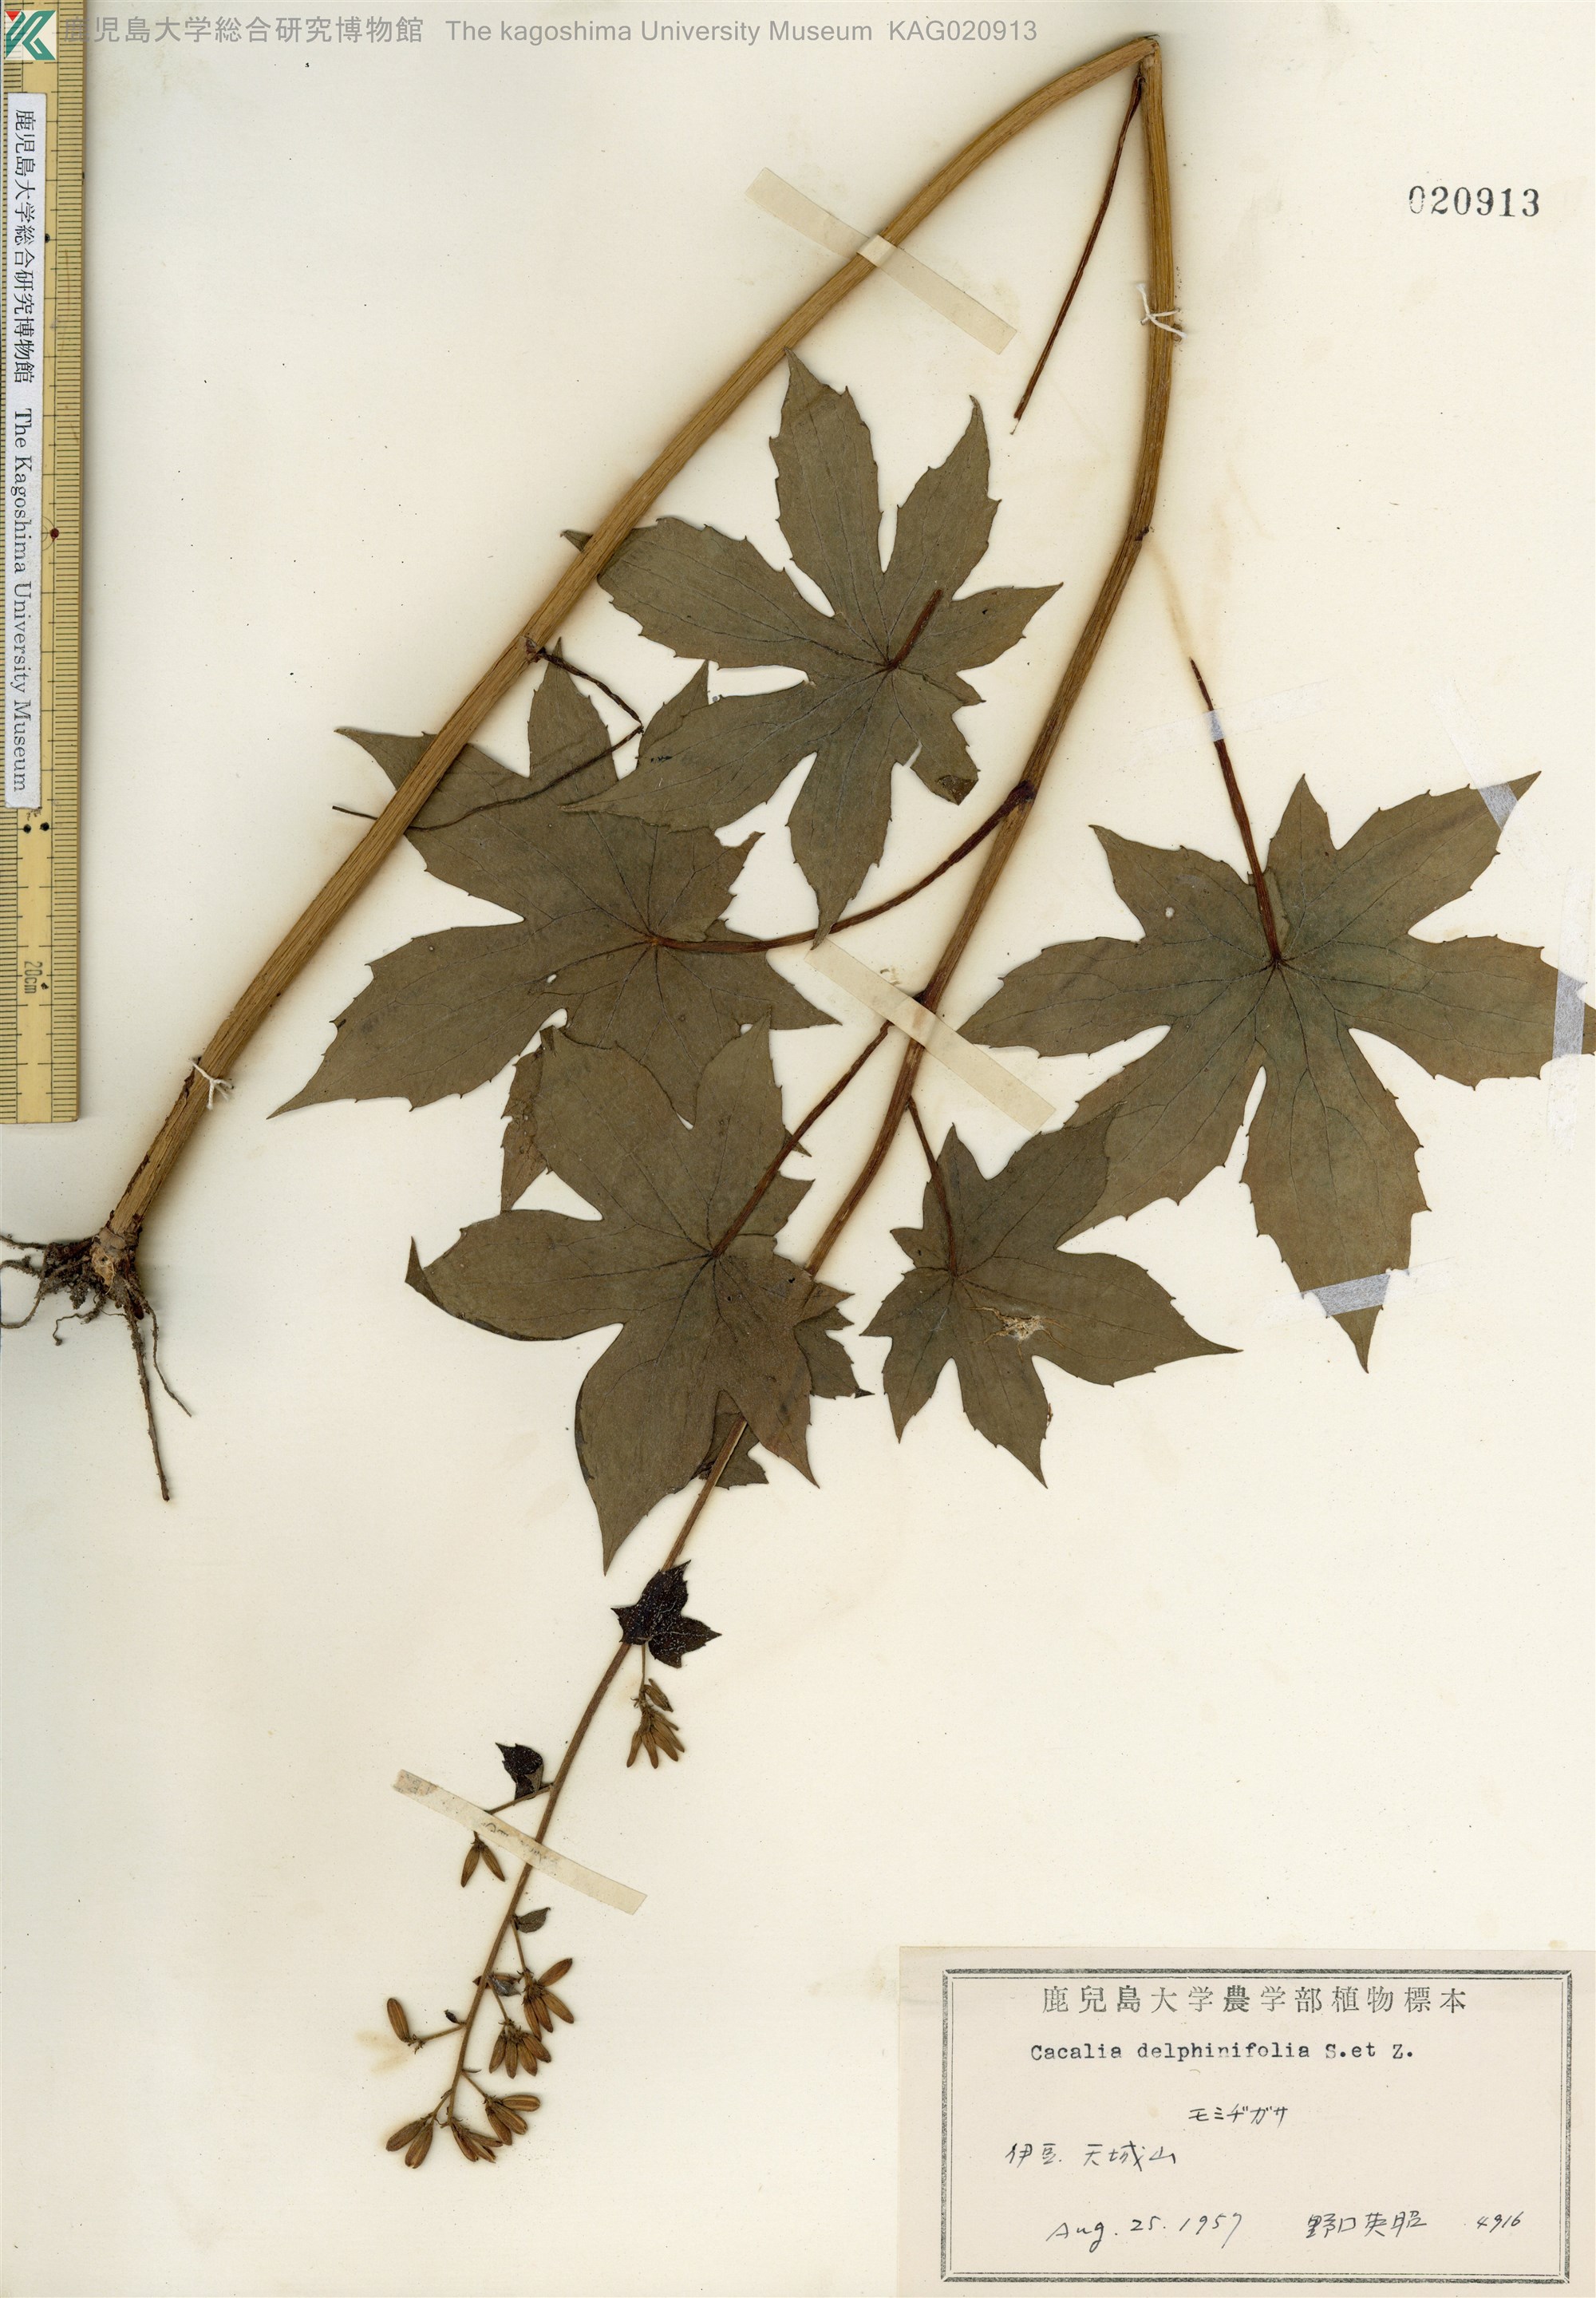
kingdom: Plantae
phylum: Tracheophyta
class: Magnoliopsida
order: Asterales
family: Asteraceae
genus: Japonicalia
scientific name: Japonicalia delphiniifolia
